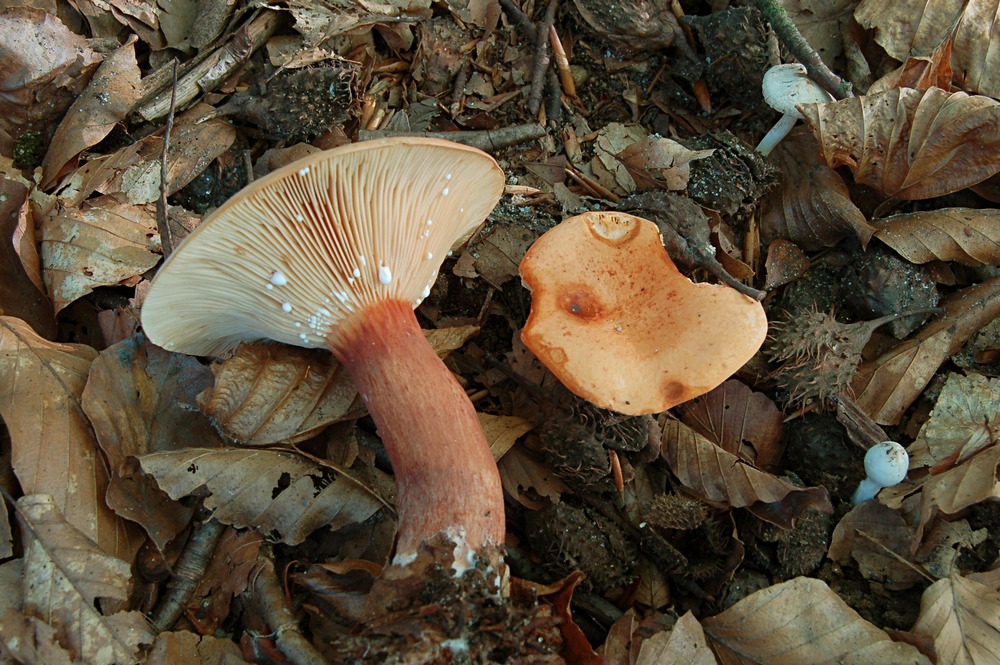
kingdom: Fungi
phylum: Basidiomycota
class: Agaricomycetes
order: Russulales
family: Russulaceae
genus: Lactarius
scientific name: Lactarius rubrocinctus
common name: halsbånd-mælkehat
